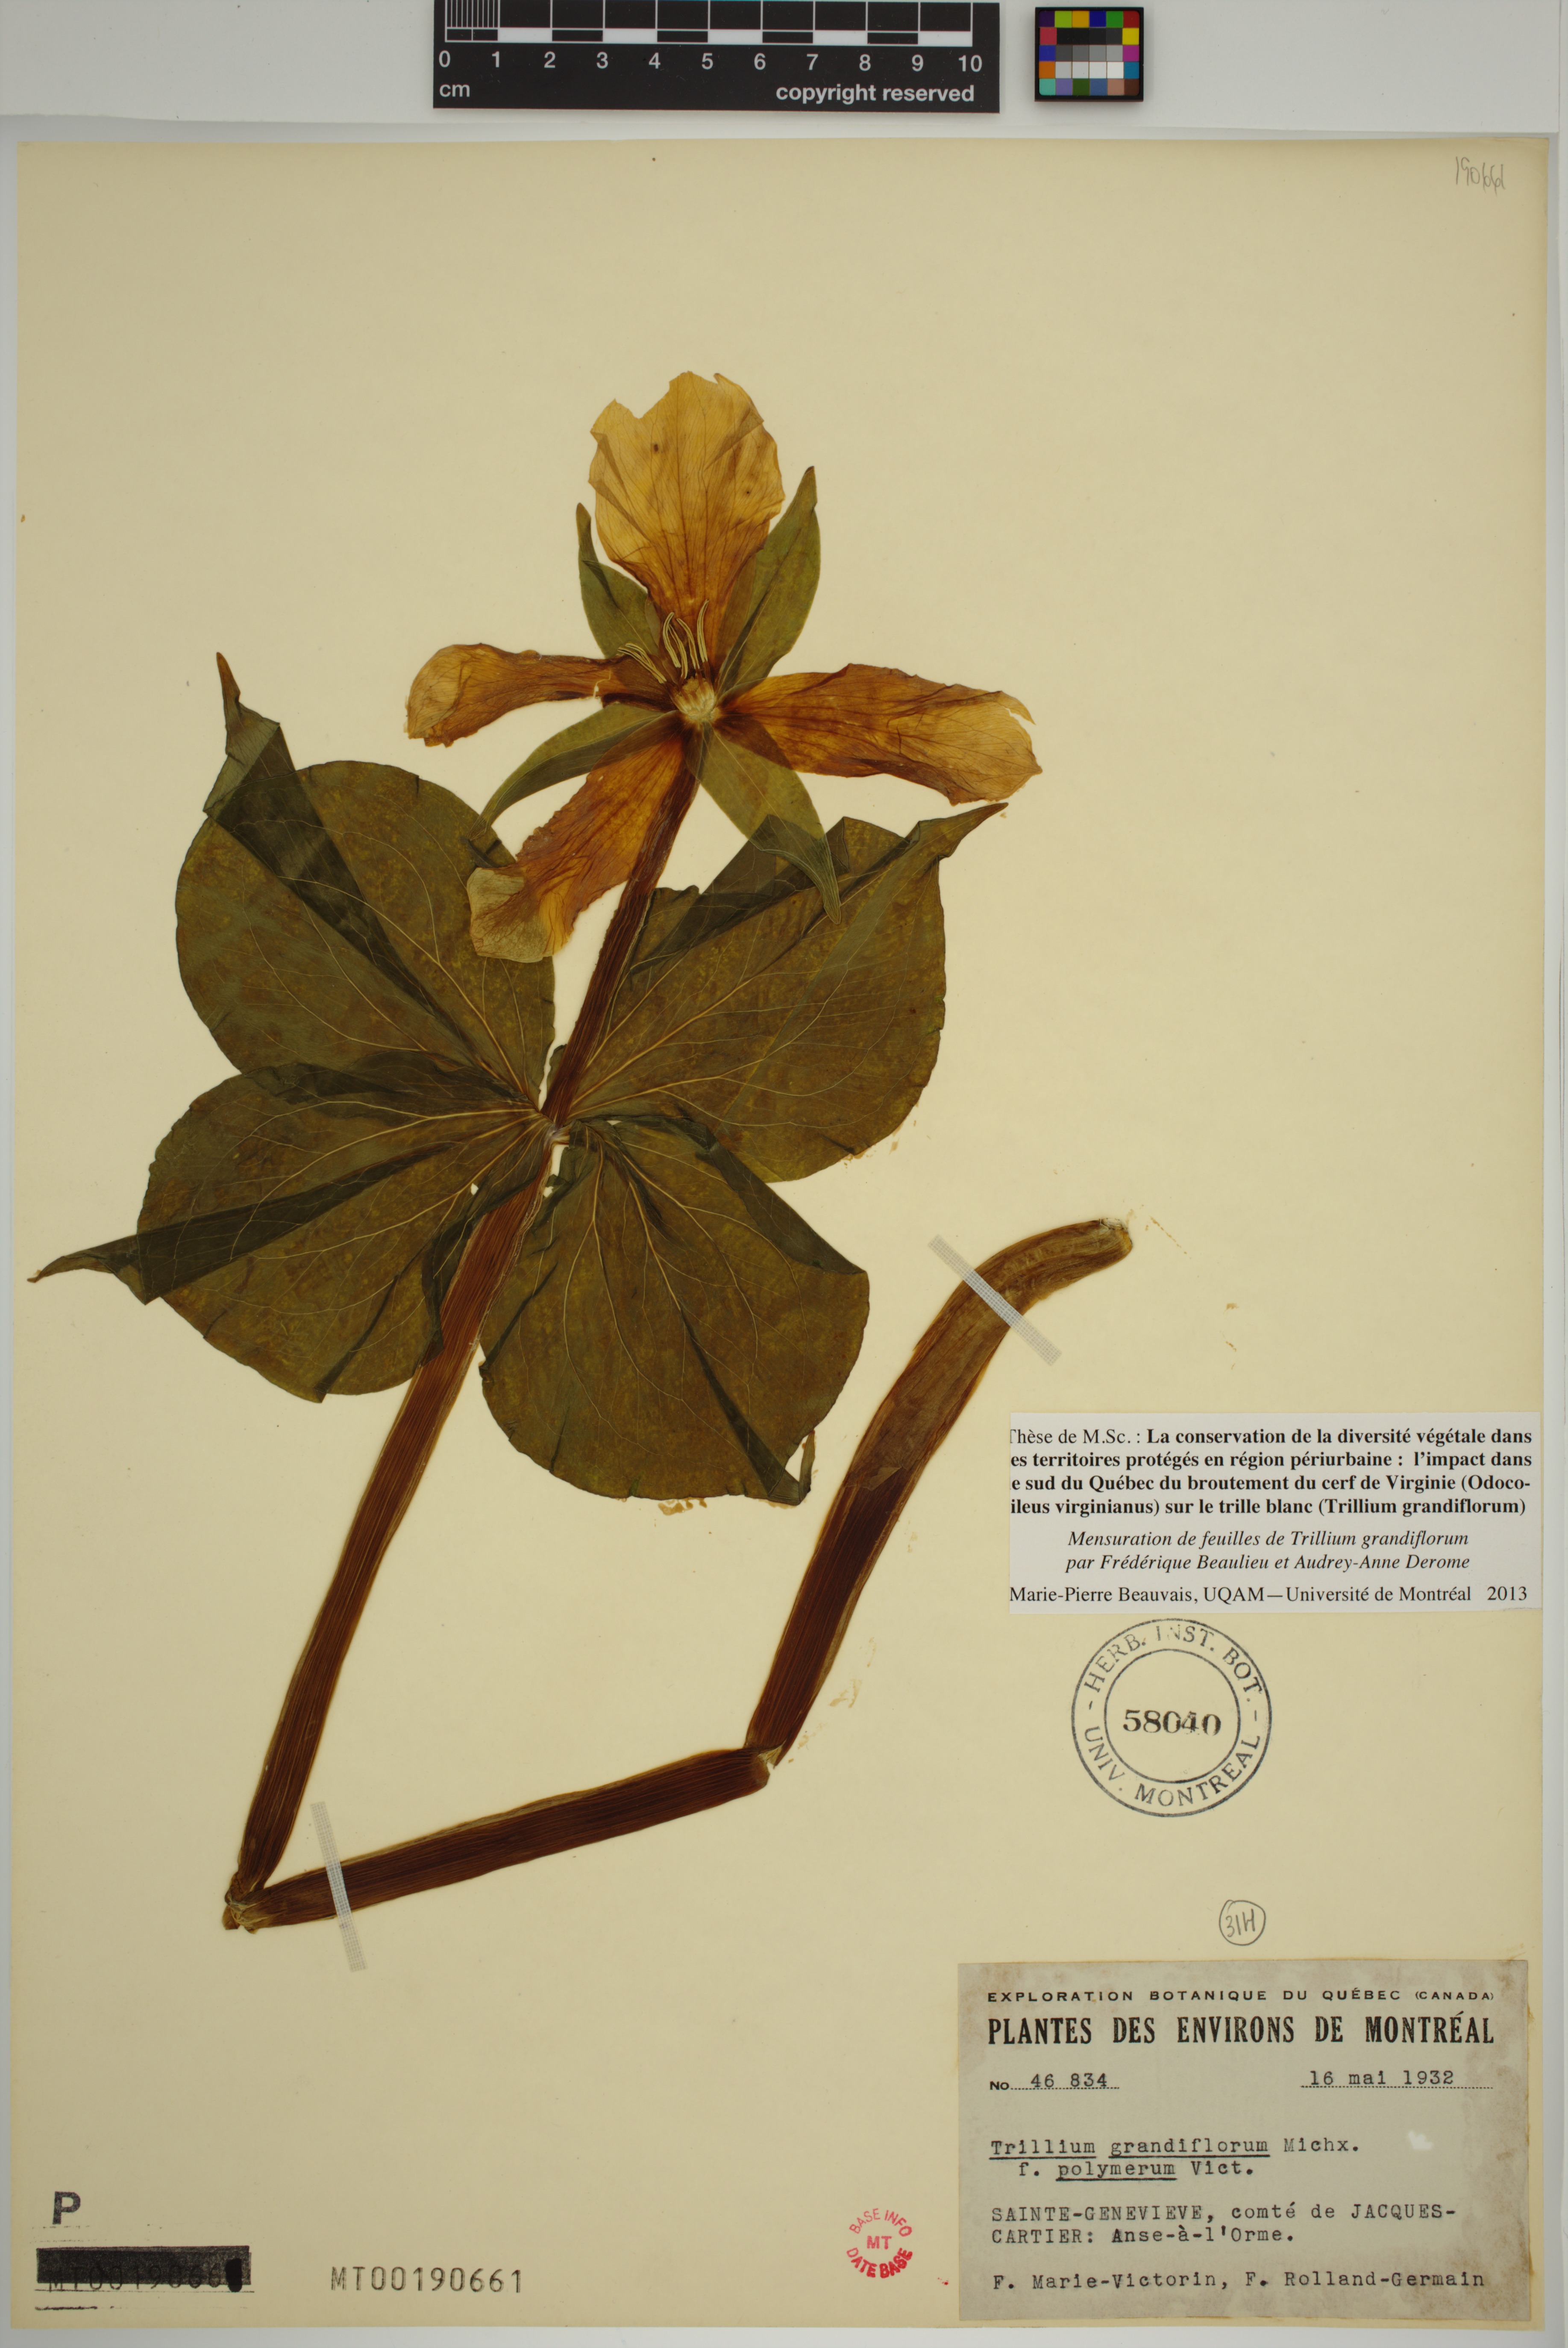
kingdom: Plantae
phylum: Tracheophyta
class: Liliopsida
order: Liliales
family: Melanthiaceae
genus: Trillium
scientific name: Trillium grandiflorum
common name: Great white trillium
